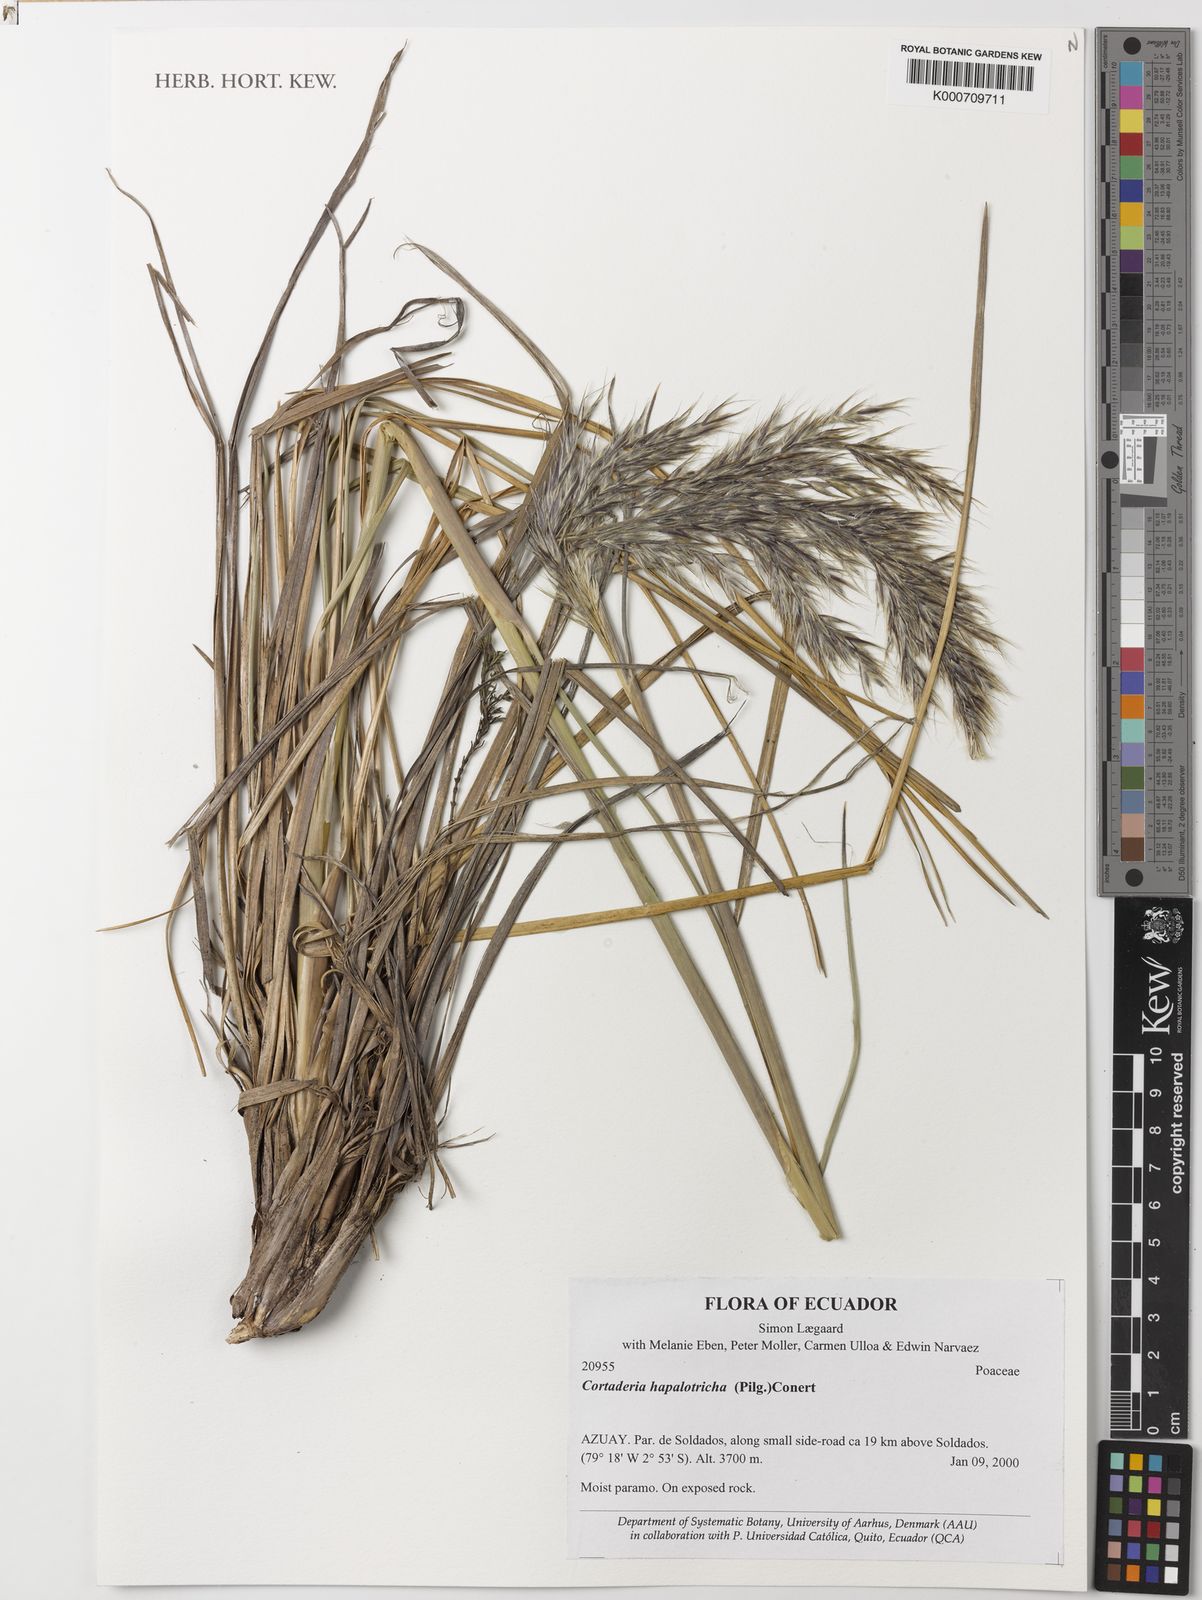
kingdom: Plantae
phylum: Tracheophyta
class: Liliopsida
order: Poales
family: Poaceae
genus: Cortaderia
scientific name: Cortaderia hapalotricha
